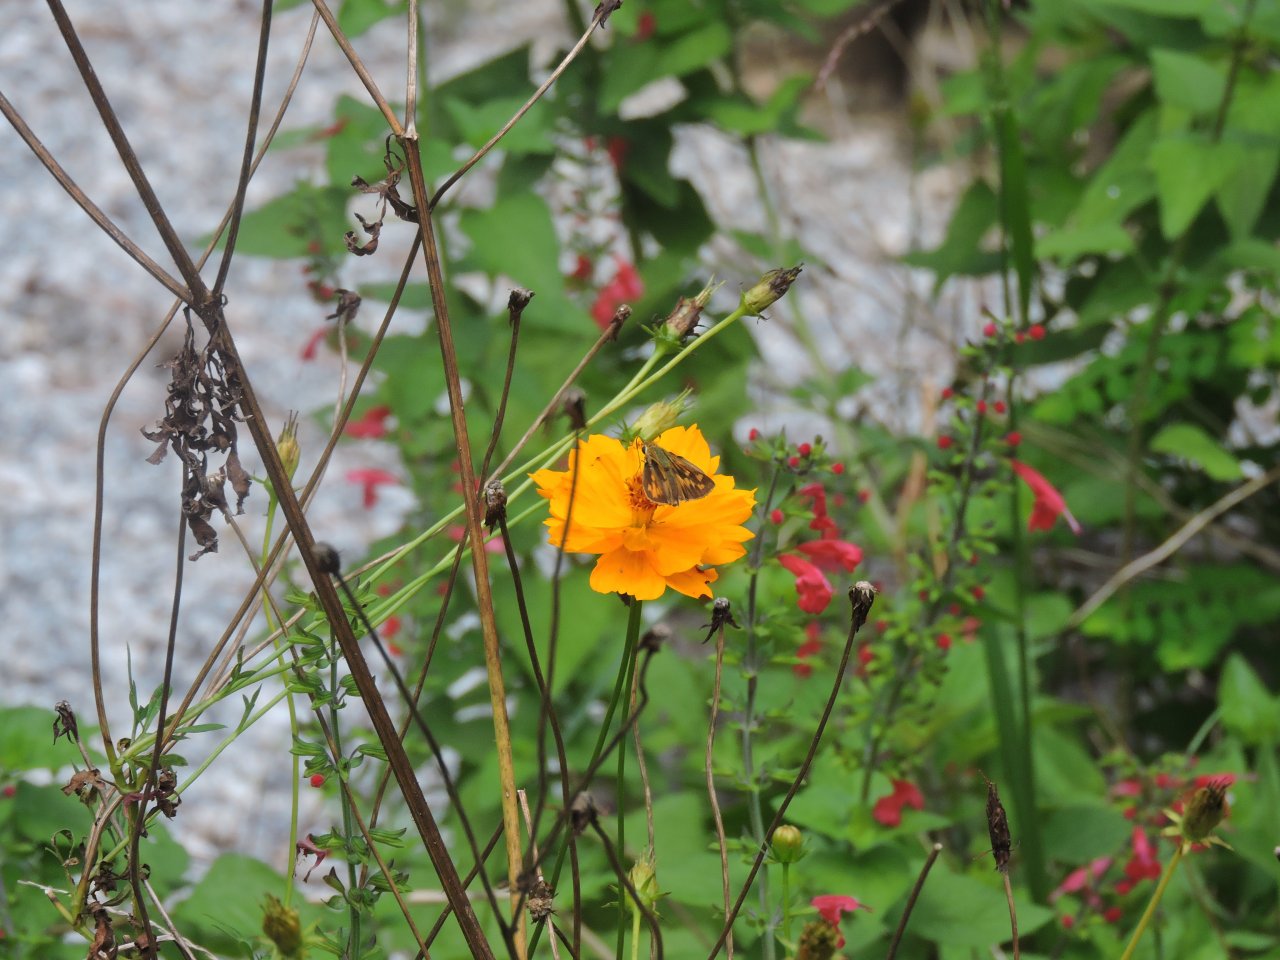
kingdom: Animalia
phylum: Arthropoda
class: Insecta
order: Lepidoptera
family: Hesperiidae
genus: Hylephila
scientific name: Hylephila phyleus
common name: Fiery Skipper
